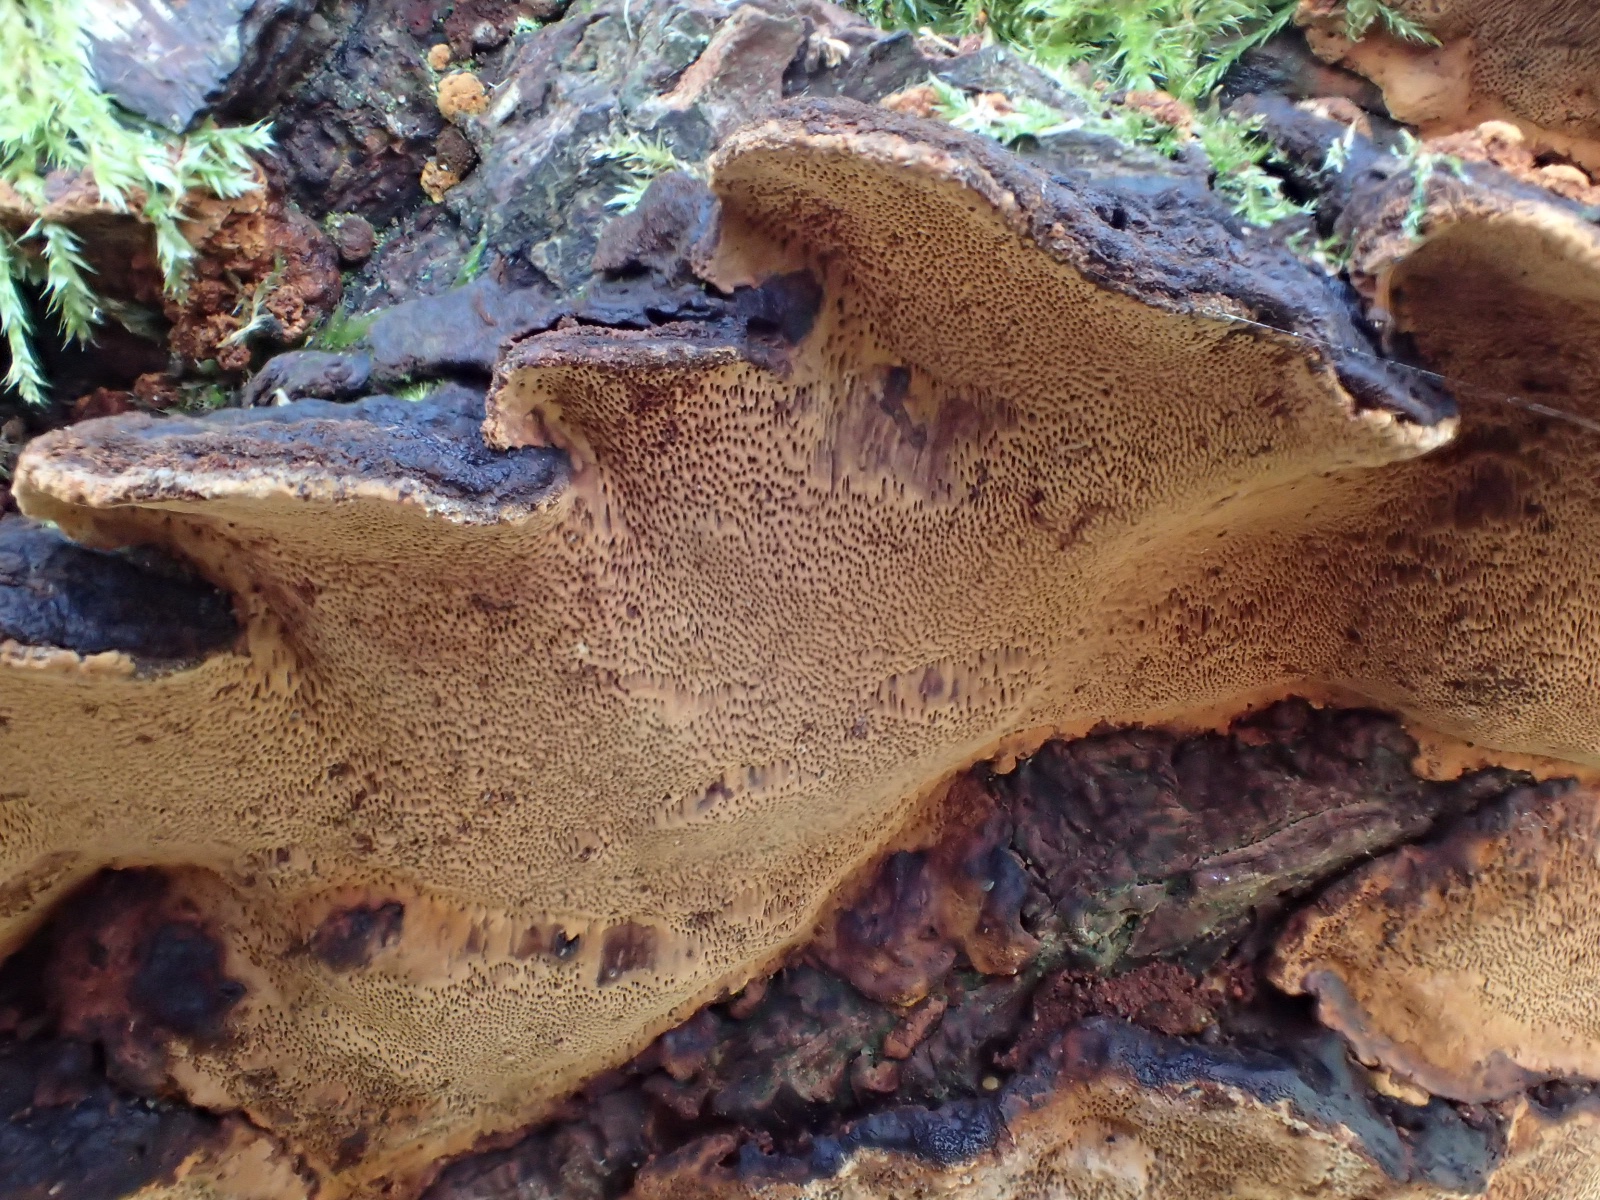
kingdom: Fungi
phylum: Basidiomycota
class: Agaricomycetes
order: Hymenochaetales
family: Hymenochaetaceae
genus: Phellinopsis
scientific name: Phellinopsis conchata
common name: pile-ildporesvamp
